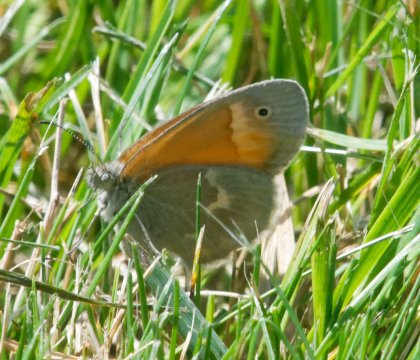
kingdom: Animalia
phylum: Arthropoda
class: Insecta
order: Lepidoptera
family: Nymphalidae
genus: Coenonympha
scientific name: Coenonympha california
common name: California Ringlet
